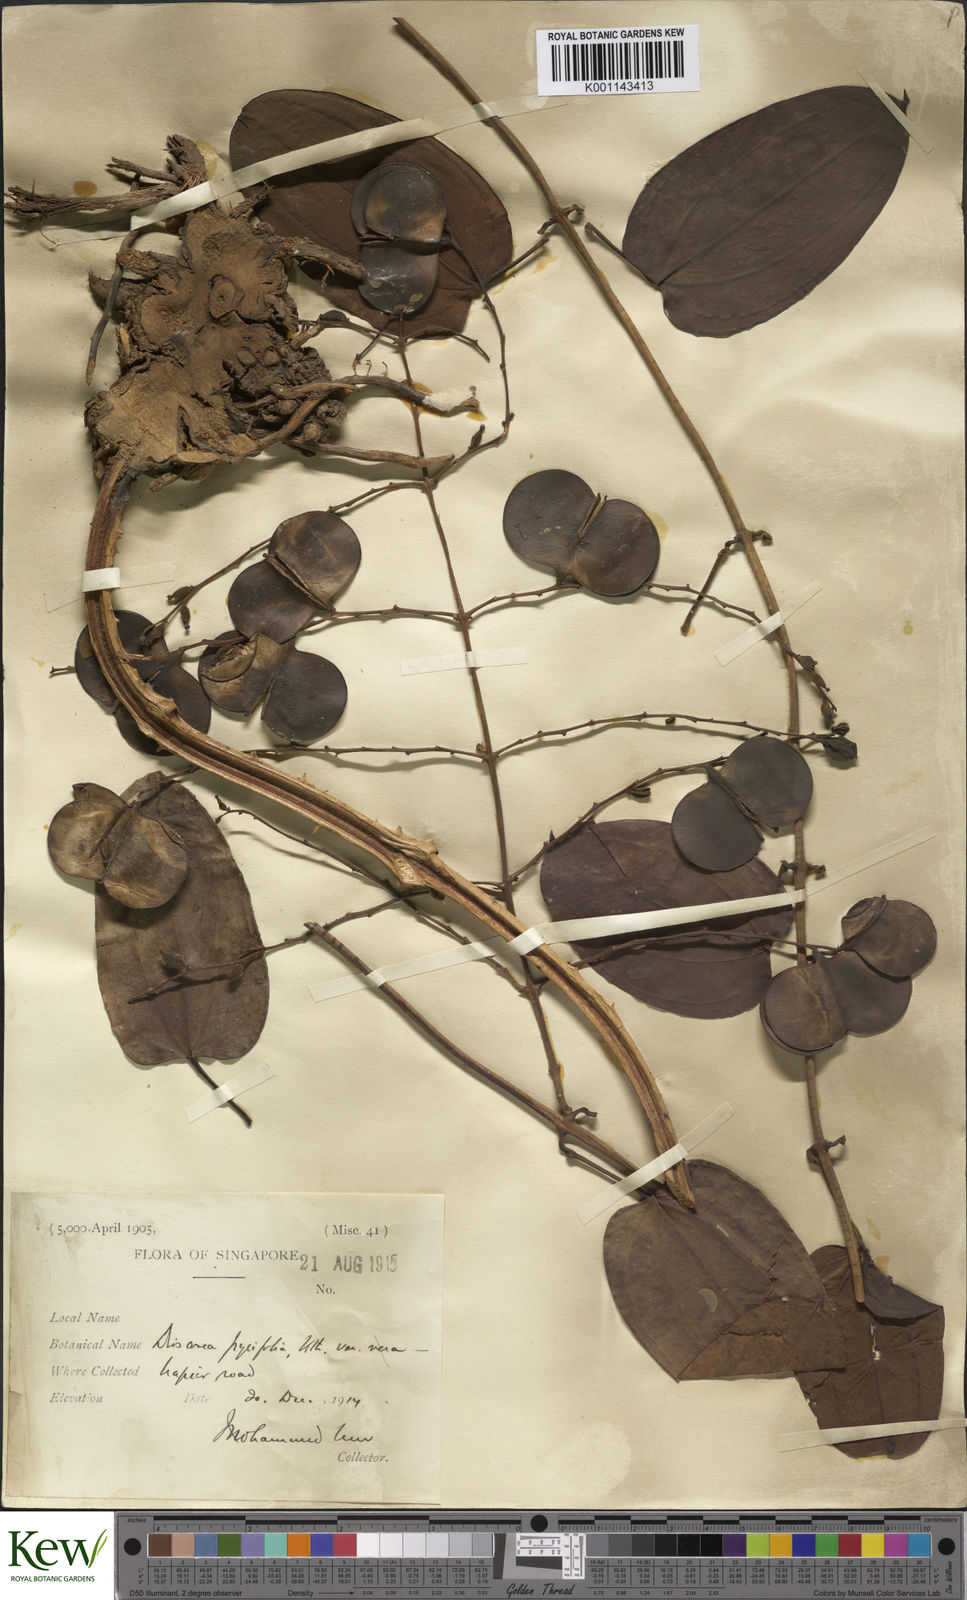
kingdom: Plantae
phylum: Tracheophyta
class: Liliopsida
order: Dioscoreales
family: Dioscoreaceae
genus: Dioscorea
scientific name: Dioscorea pyrifolia
